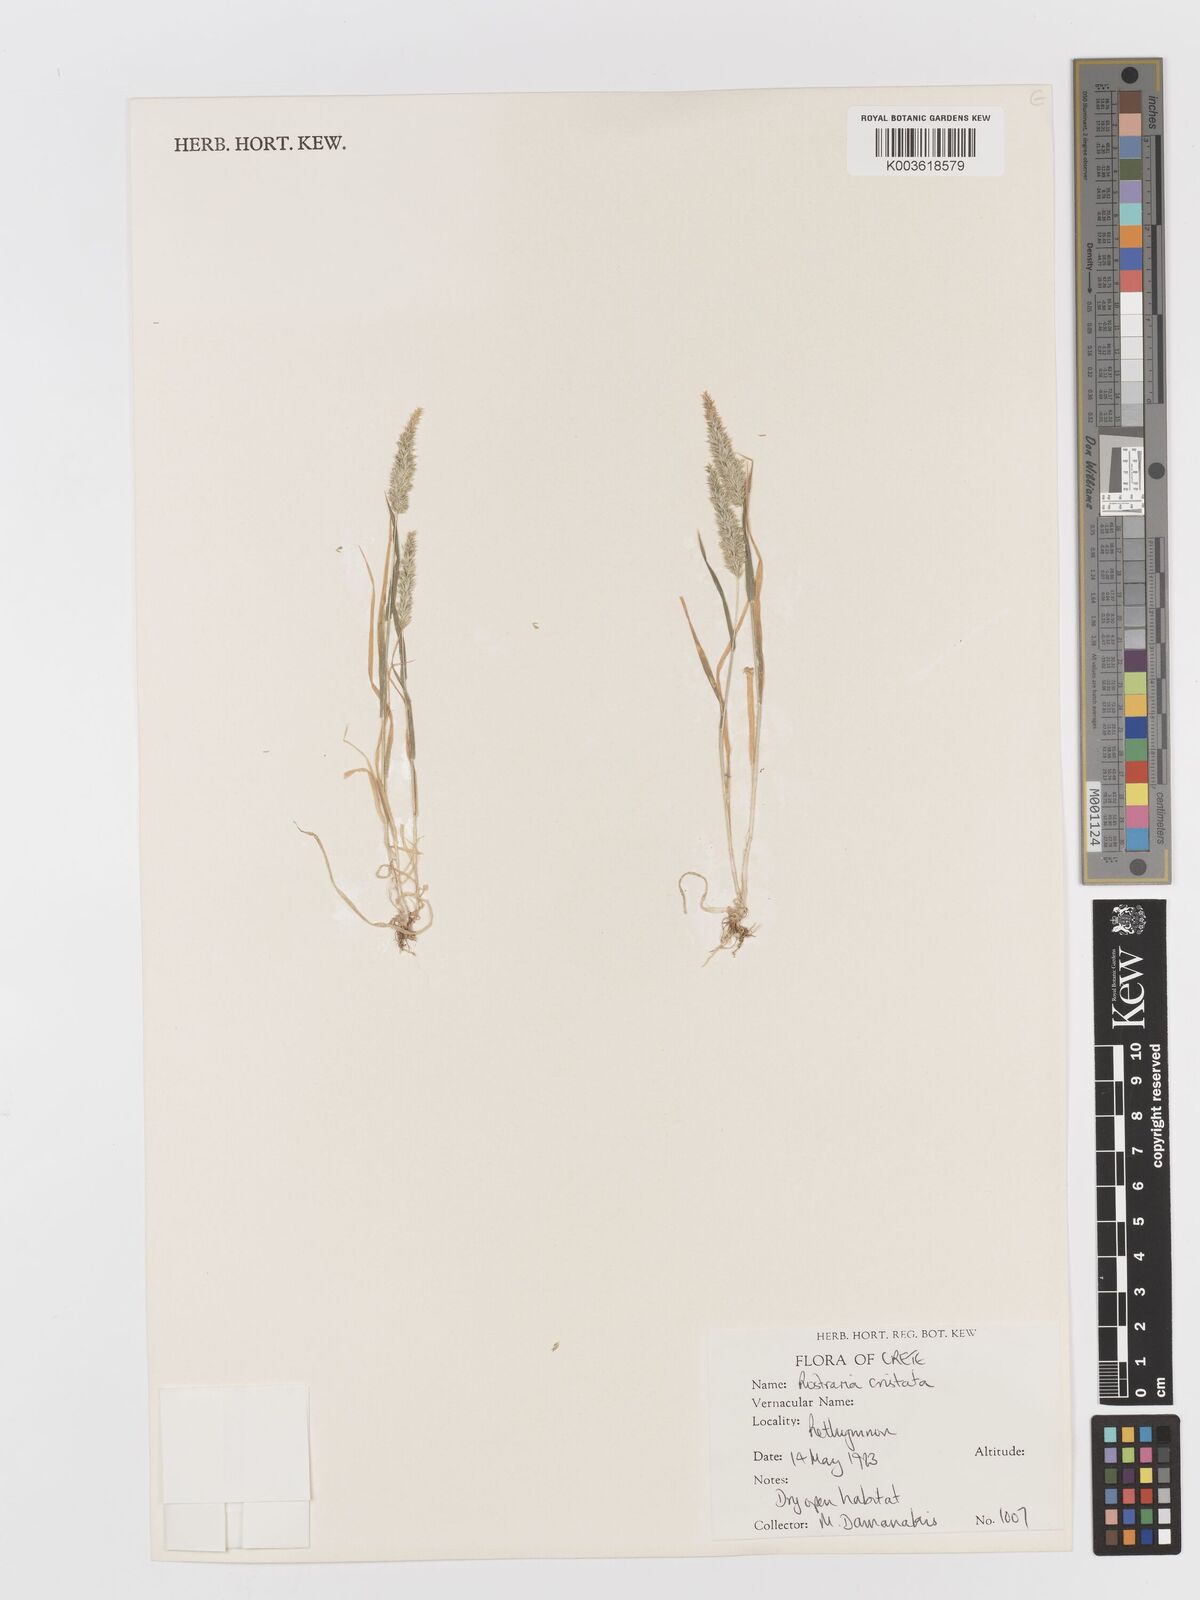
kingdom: Plantae
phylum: Tracheophyta
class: Liliopsida
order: Poales
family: Poaceae
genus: Rostraria
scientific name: Rostraria cristata
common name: Mediterranean hair-grass
